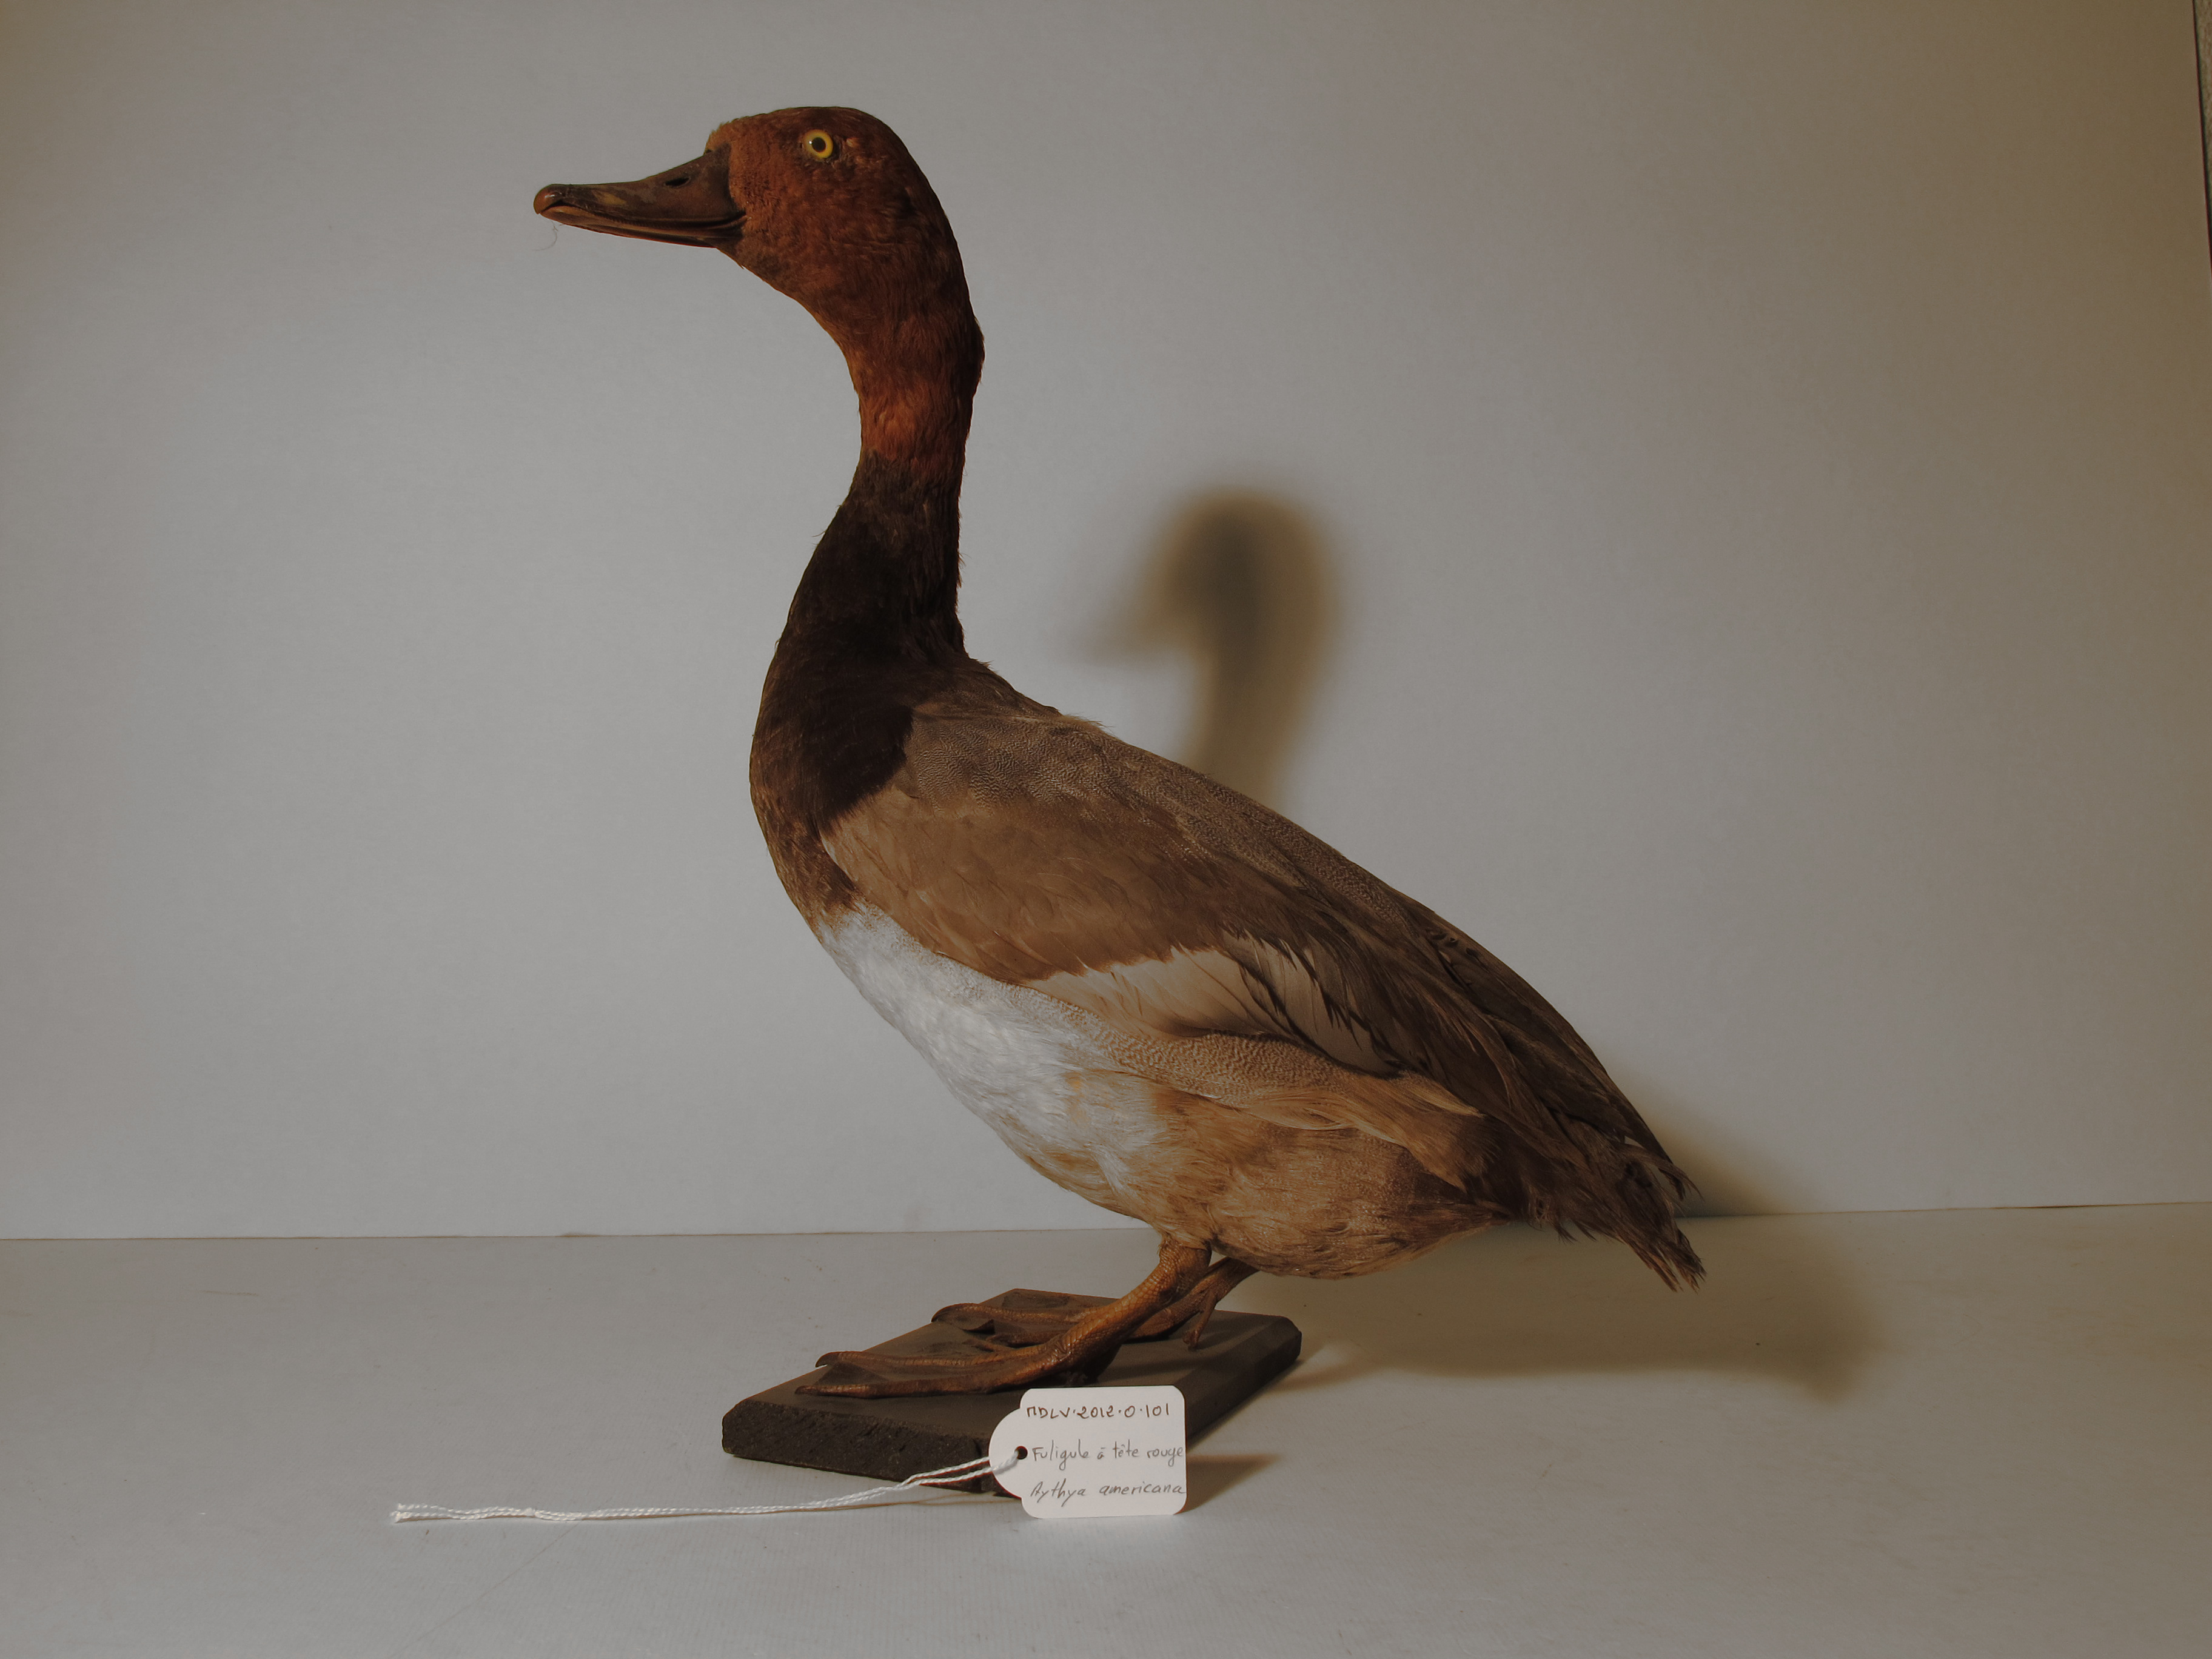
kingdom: Animalia
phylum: Chordata
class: Aves
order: Anseriformes
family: Anatidae
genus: Aythya
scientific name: Aythya americana
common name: Redhead
